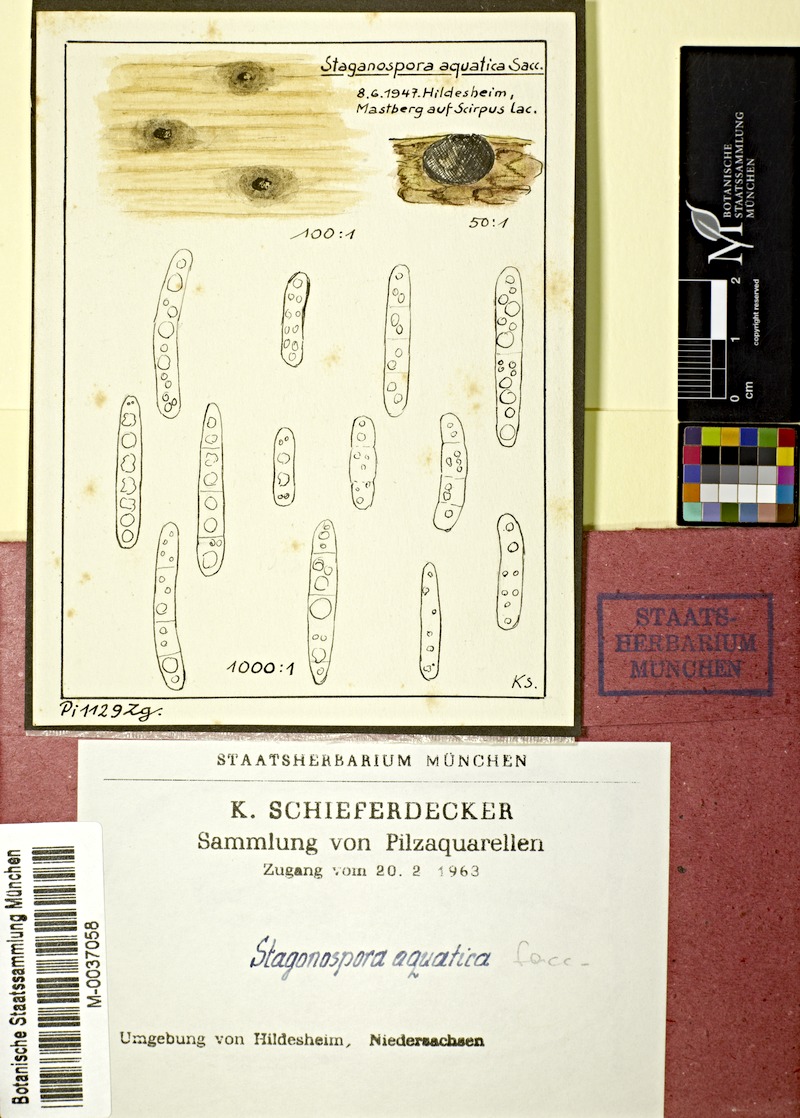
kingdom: Fungi
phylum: Ascomycota
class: Dothideomycetes
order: Pleosporales
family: Phaeosphaeriaceae
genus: Stagonospora
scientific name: Stagonospora aquatica
